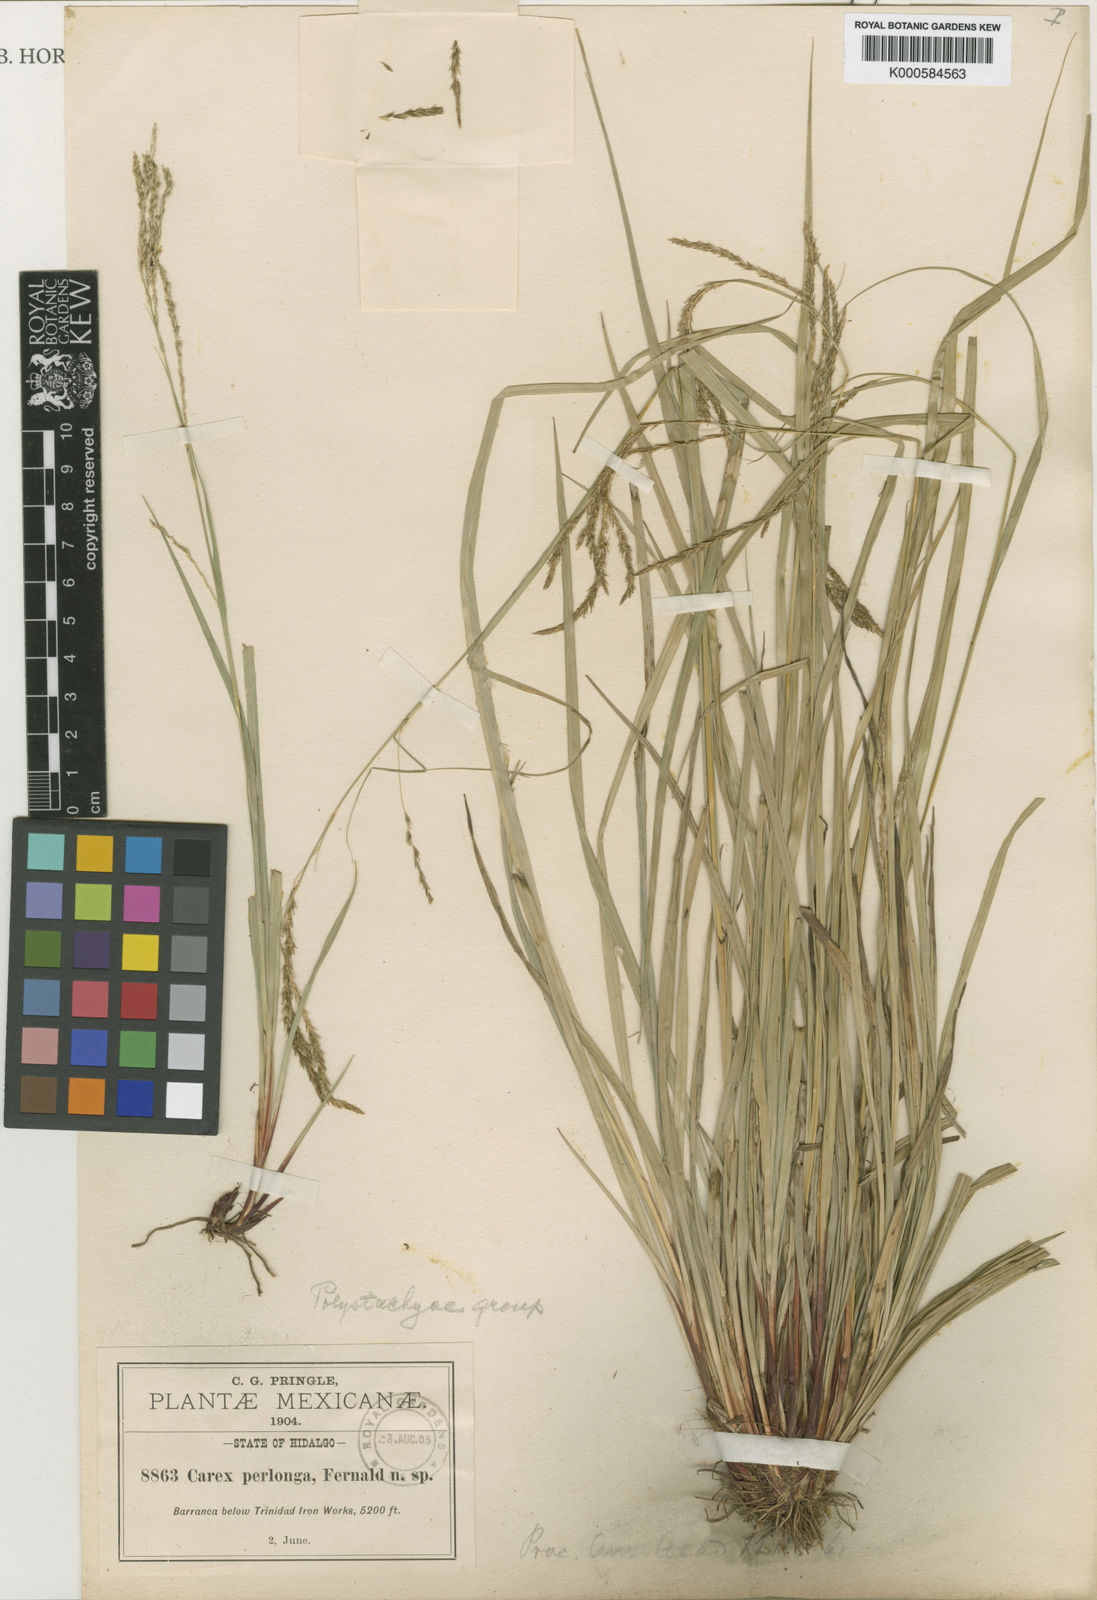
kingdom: Plantae
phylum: Tracheophyta
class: Liliopsida
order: Poales
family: Cyperaceae
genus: Carex
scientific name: Carex perlonga
